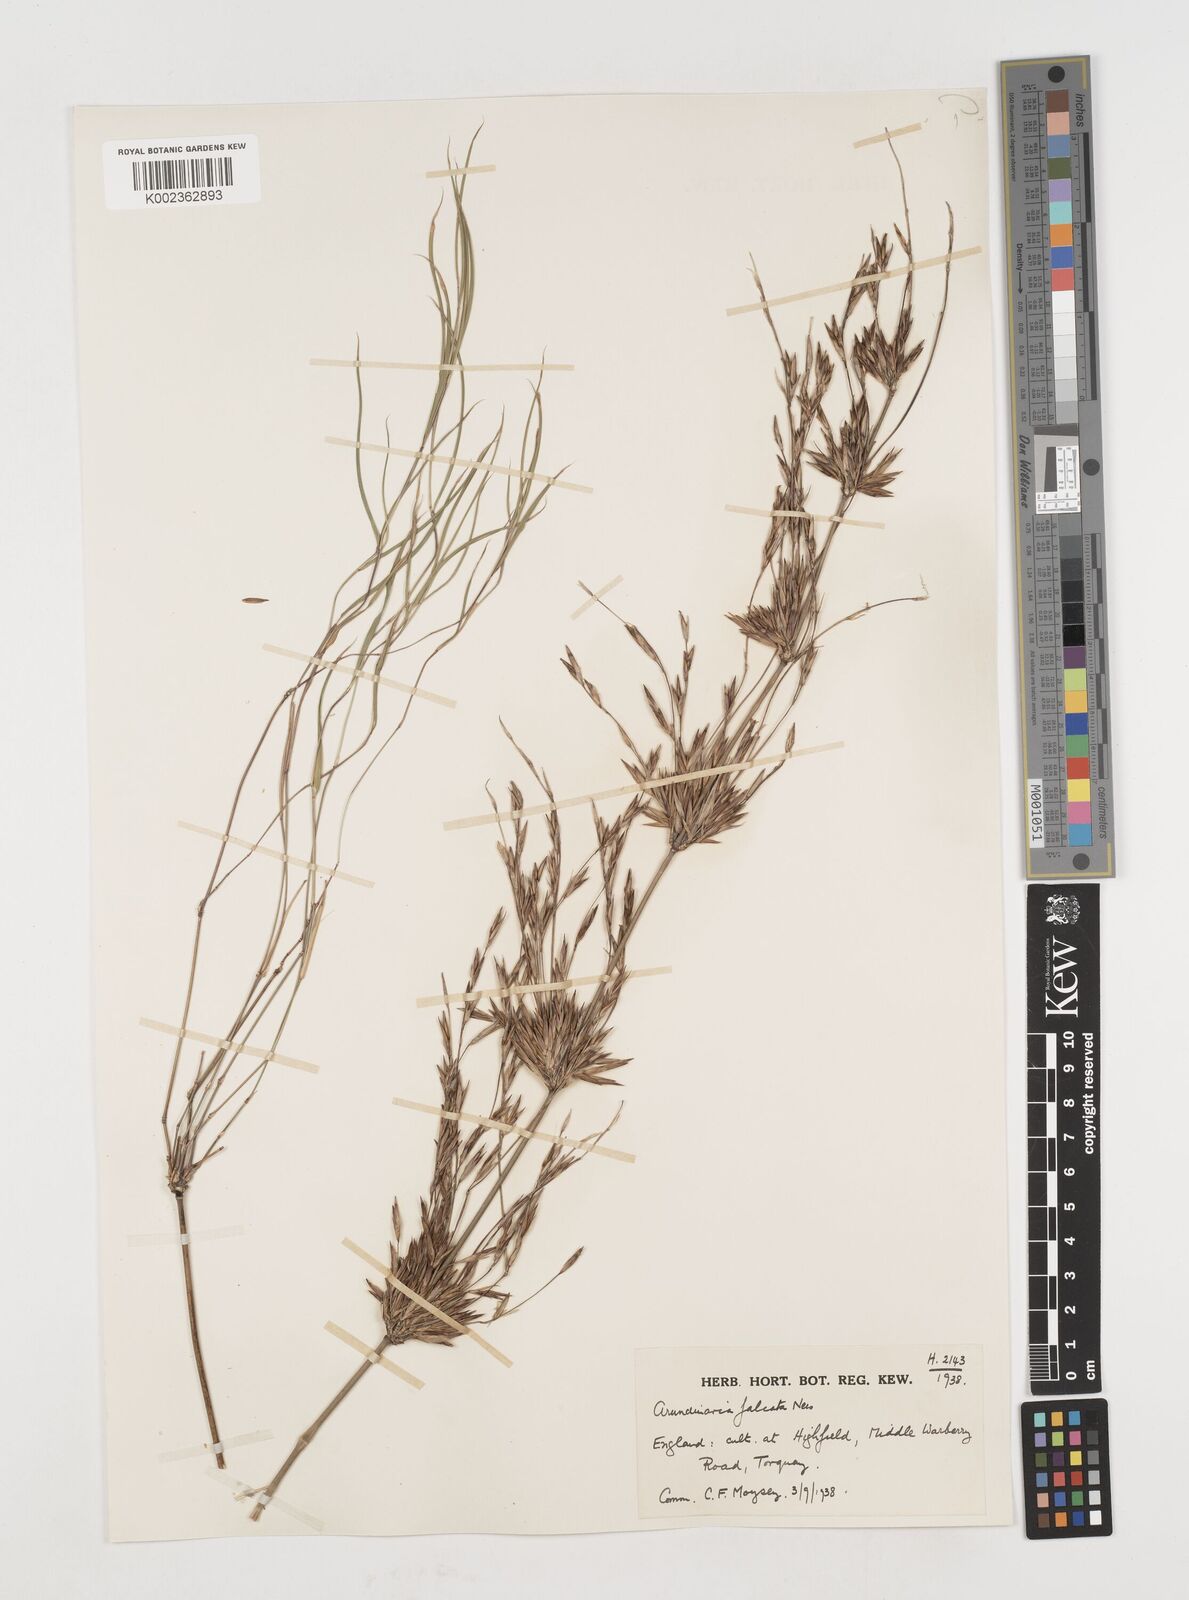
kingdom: Plantae
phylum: Tracheophyta
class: Liliopsida
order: Poales
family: Poaceae
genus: Drepanostachyum
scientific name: Drepanostachyum falcatum
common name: Himalayan bamboo
